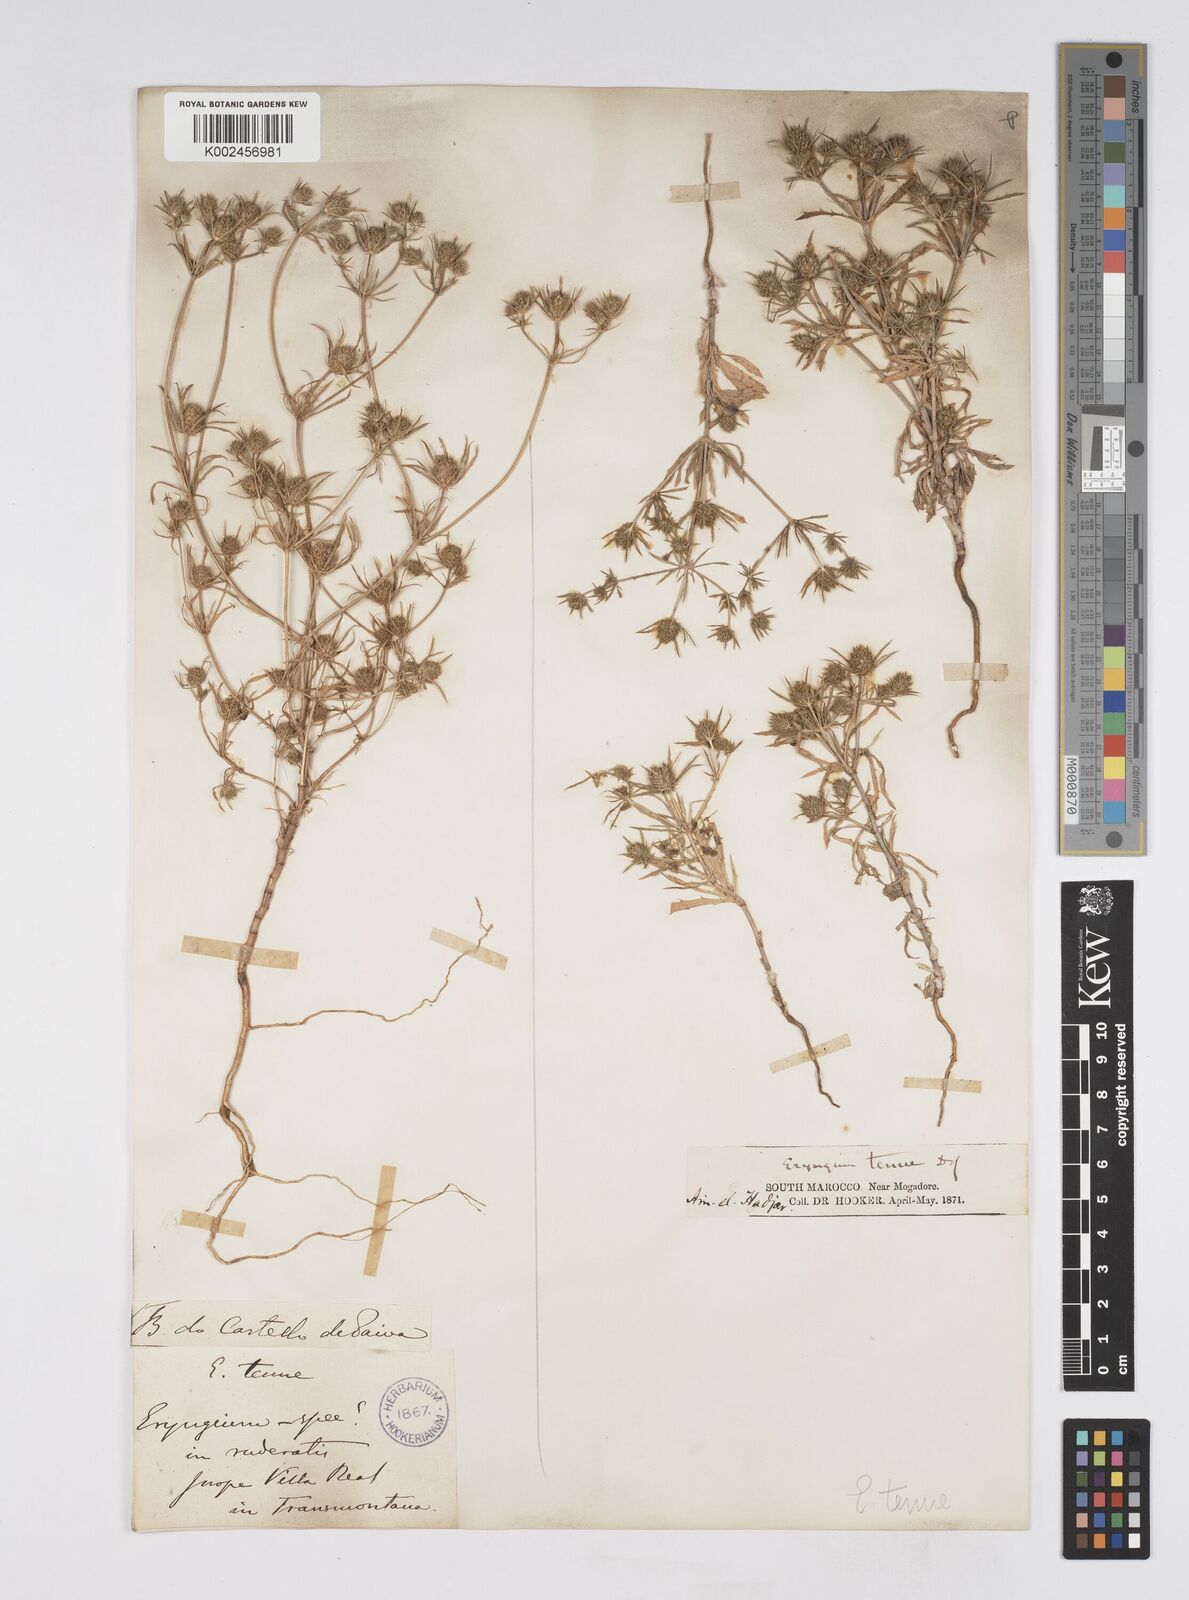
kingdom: Plantae
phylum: Tracheophyta
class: Magnoliopsida
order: Apiales
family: Apiaceae
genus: Eryngium
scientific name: Eryngium
